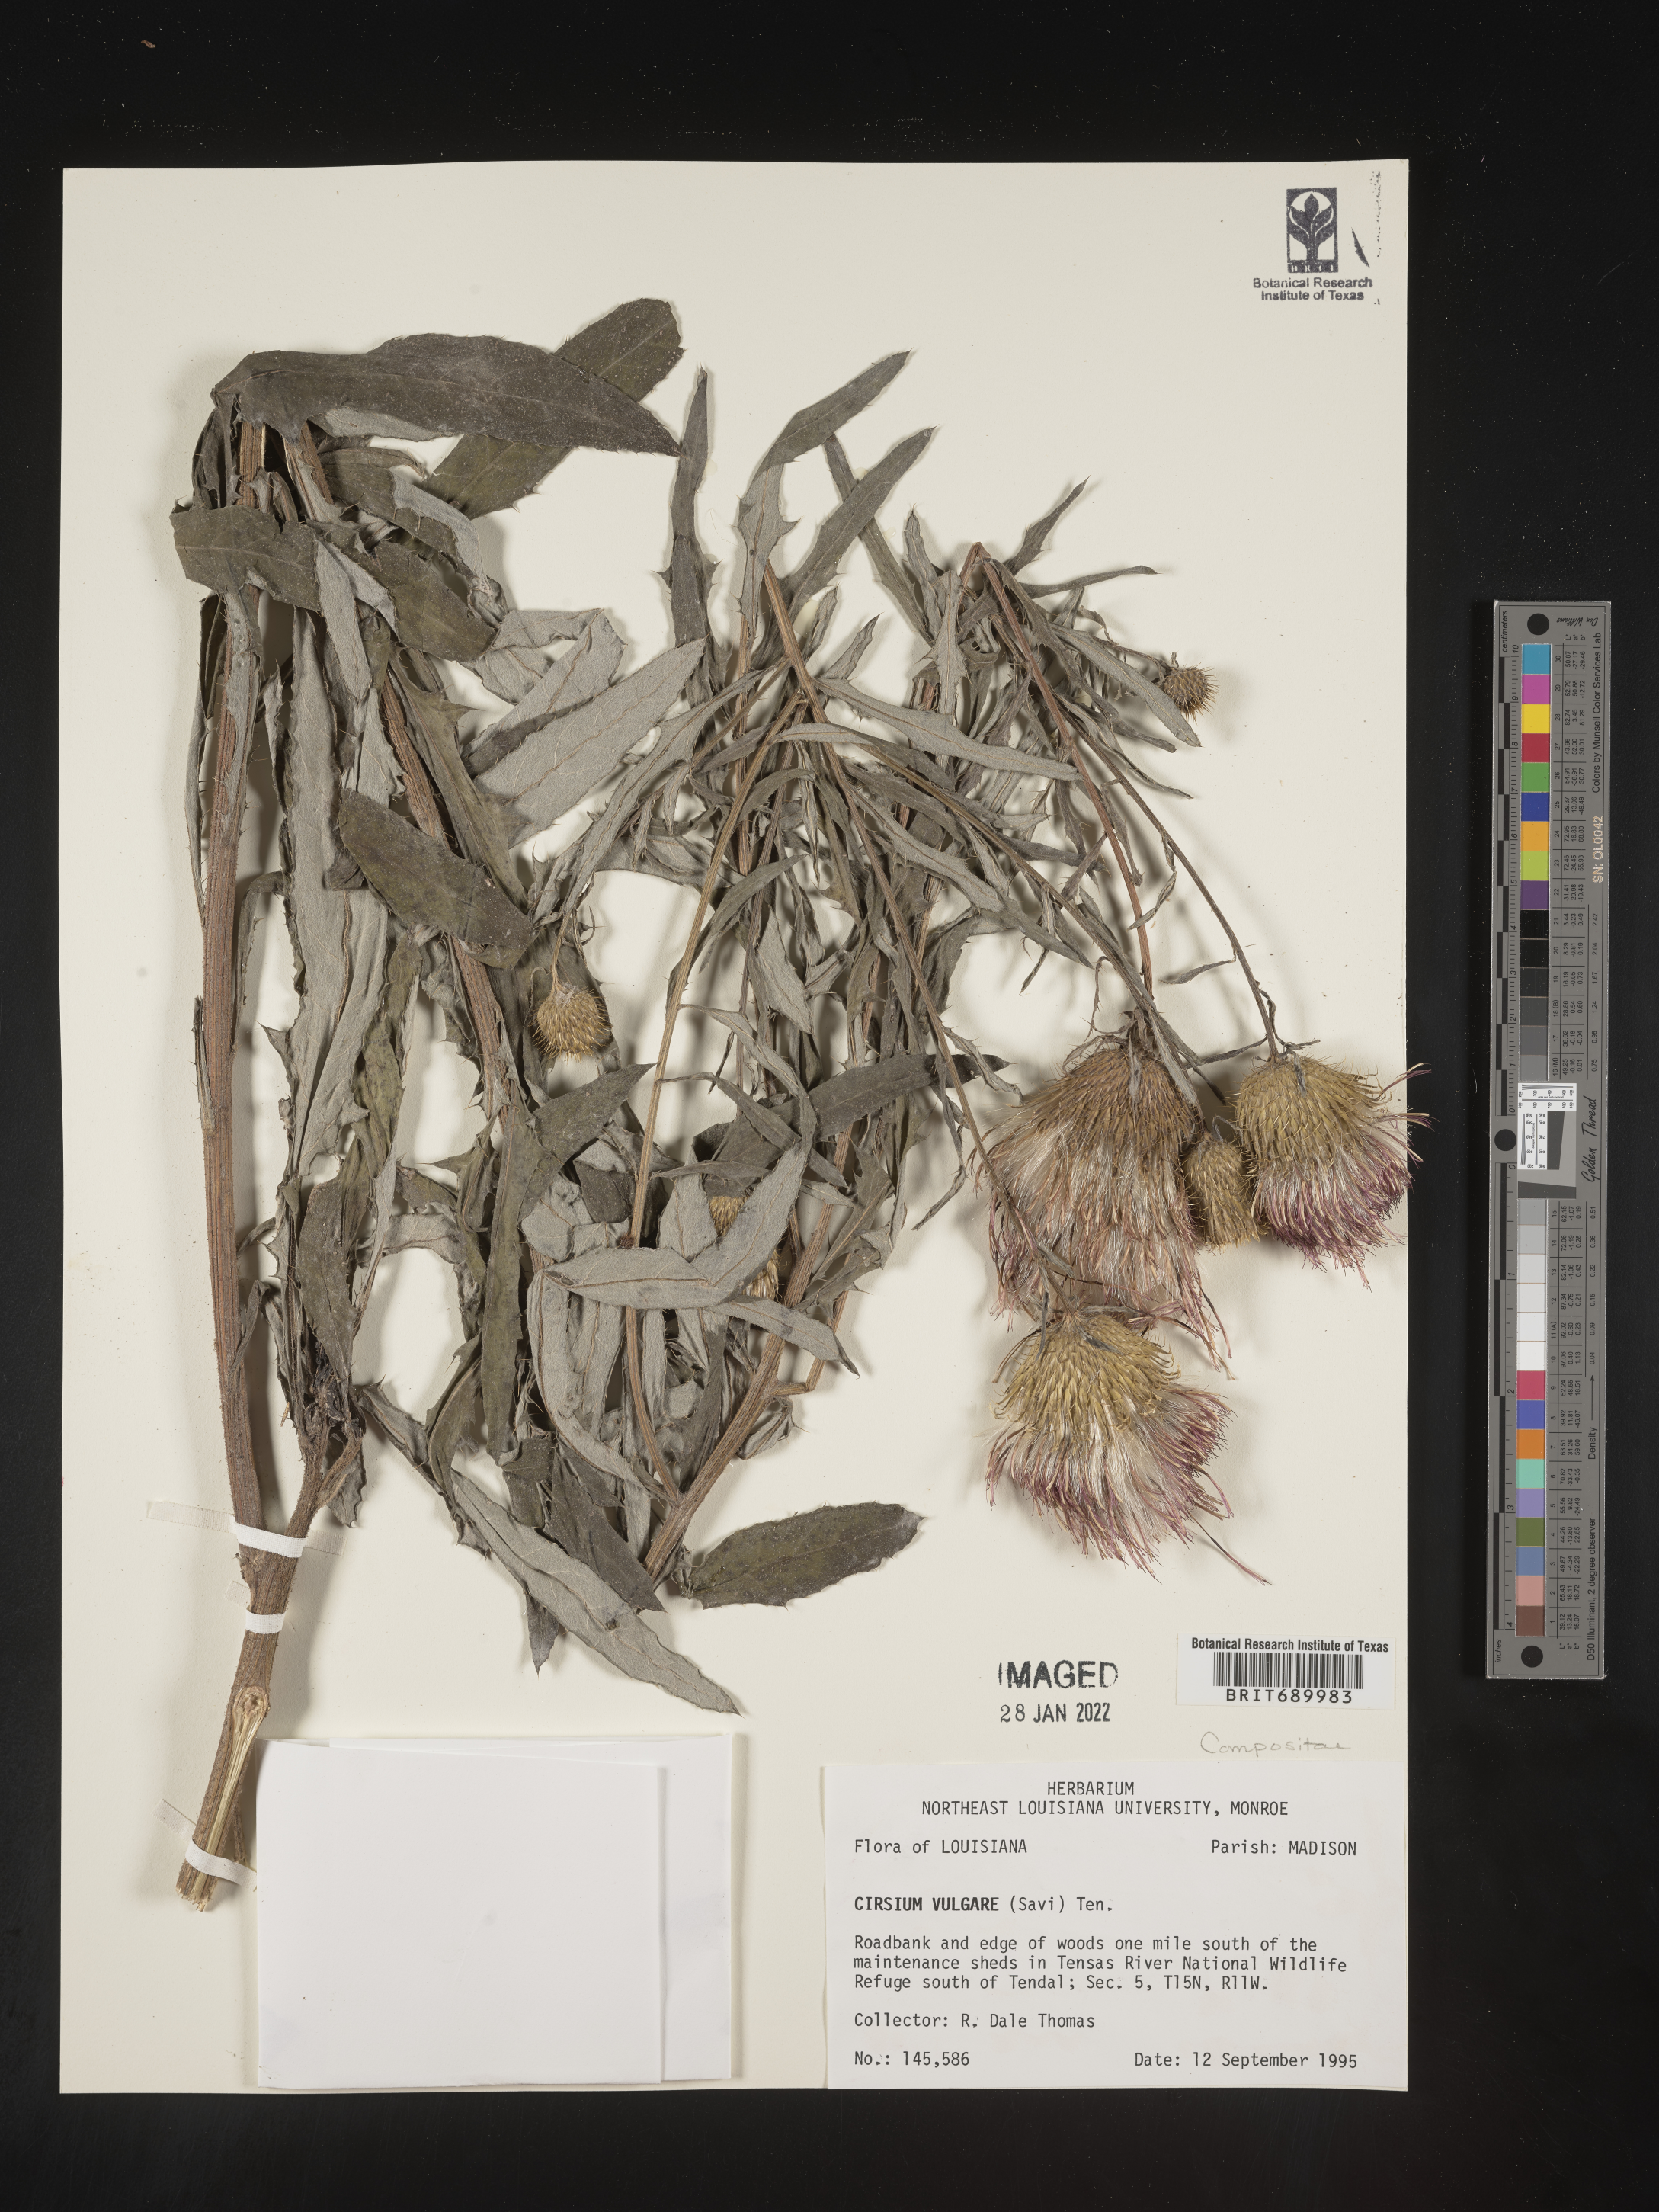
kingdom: Plantae
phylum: Tracheophyta
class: Magnoliopsida
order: Asterales
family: Asteraceae
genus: Cirsium
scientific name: Cirsium vulgare
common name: Bull thistle
